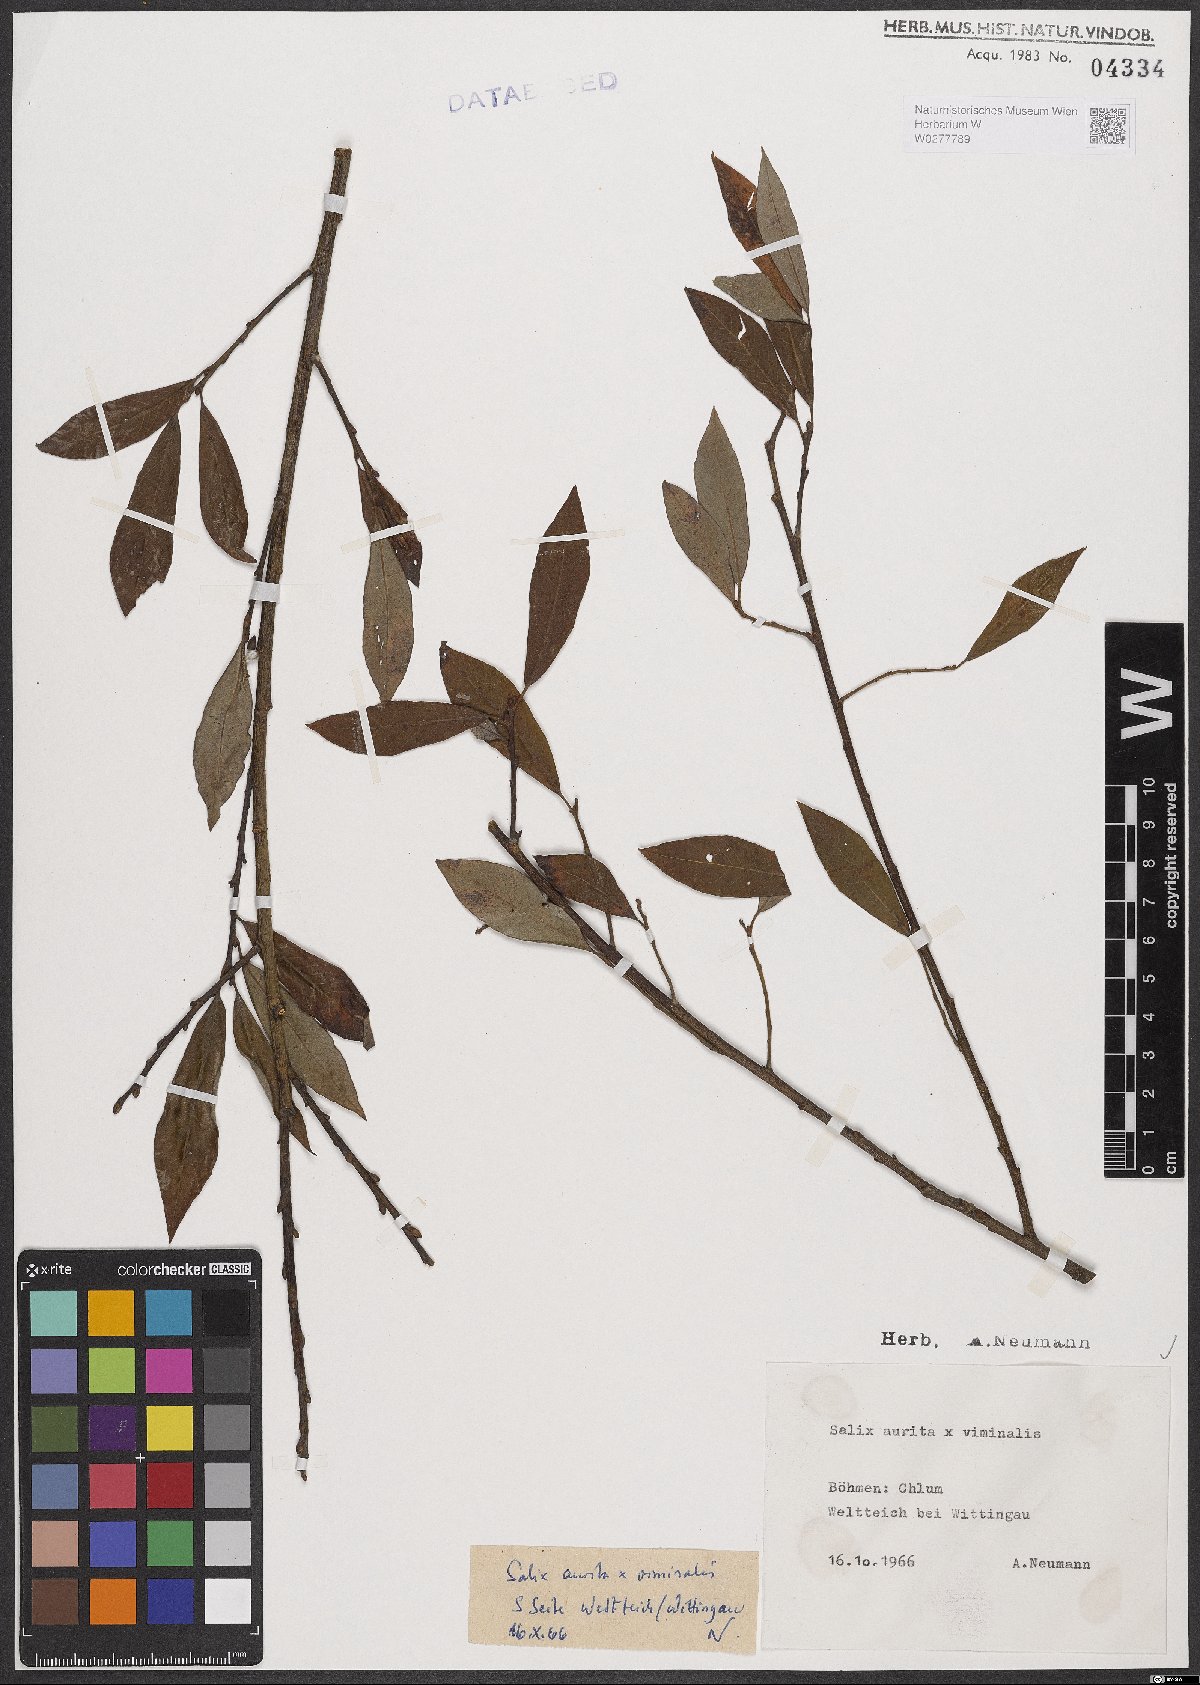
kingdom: Plantae
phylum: Tracheophyta
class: Magnoliopsida
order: Malpighiales
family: Salicaceae
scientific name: Salicaceae
